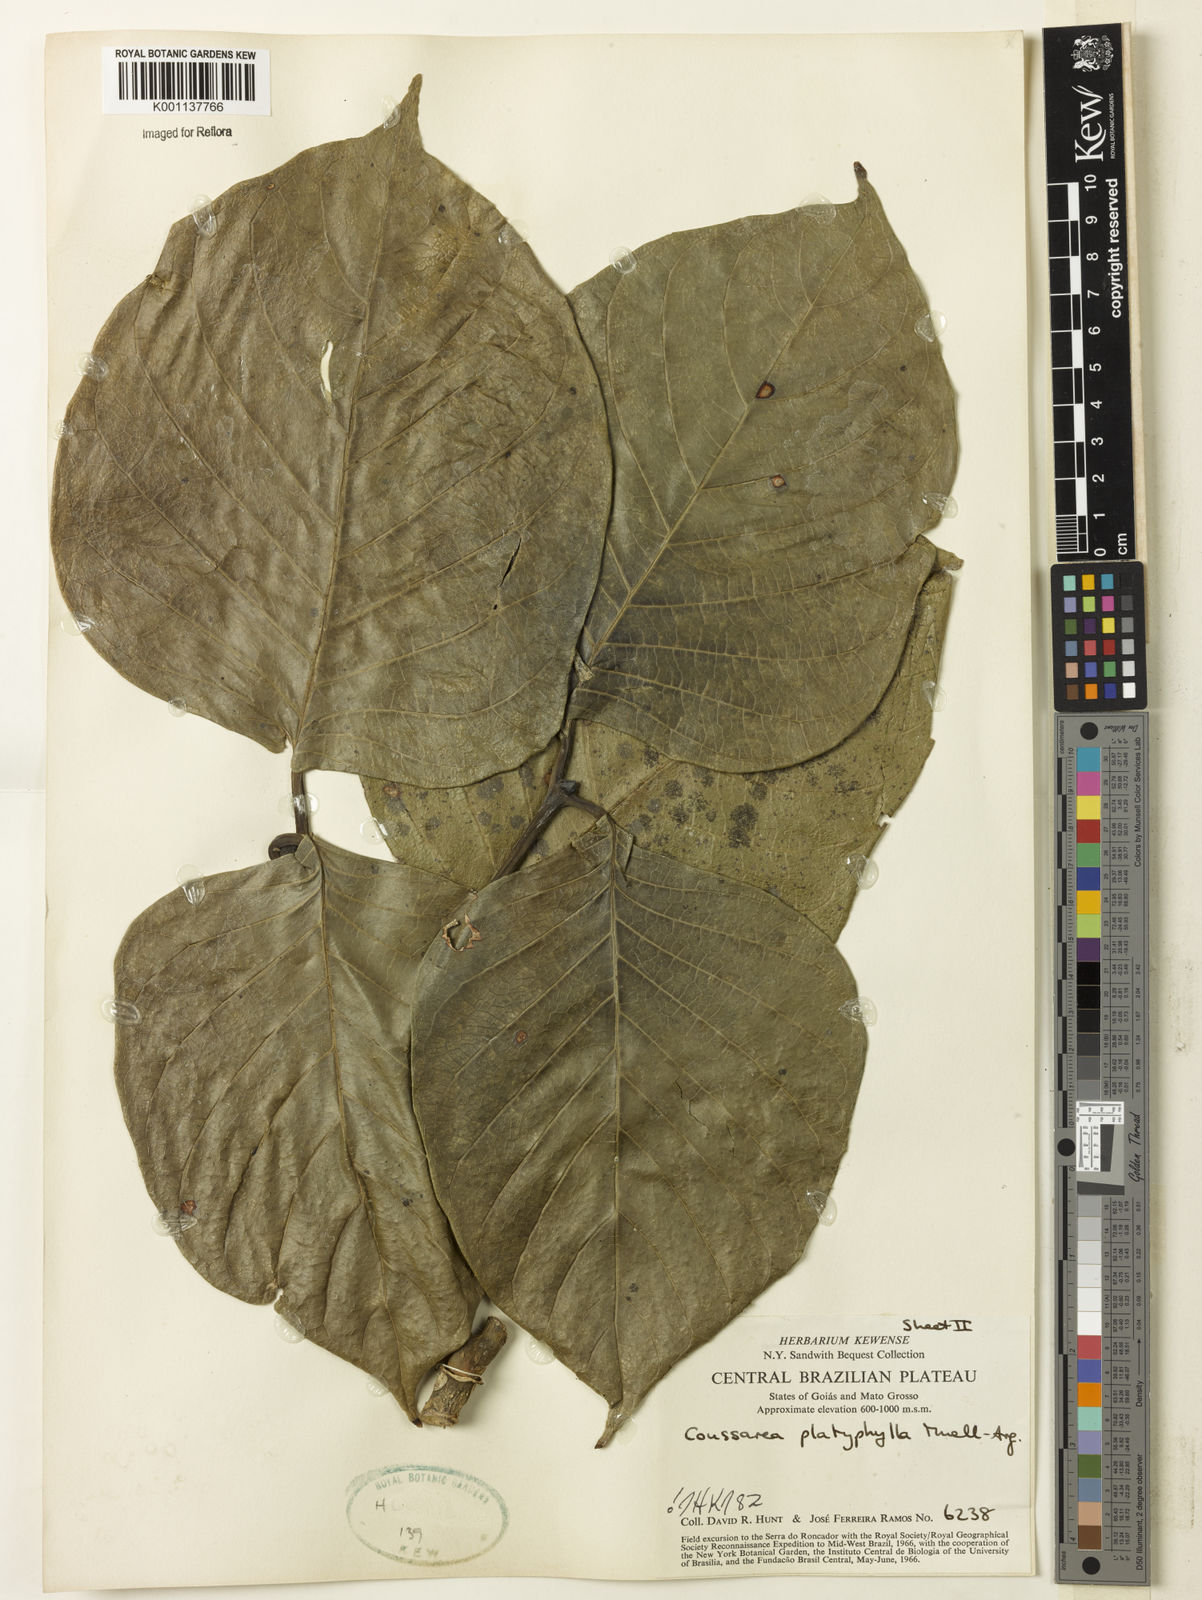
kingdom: Plantae
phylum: Tracheophyta
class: Magnoliopsida
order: Gentianales
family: Rubiaceae
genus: Coussarea
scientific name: Coussarea
